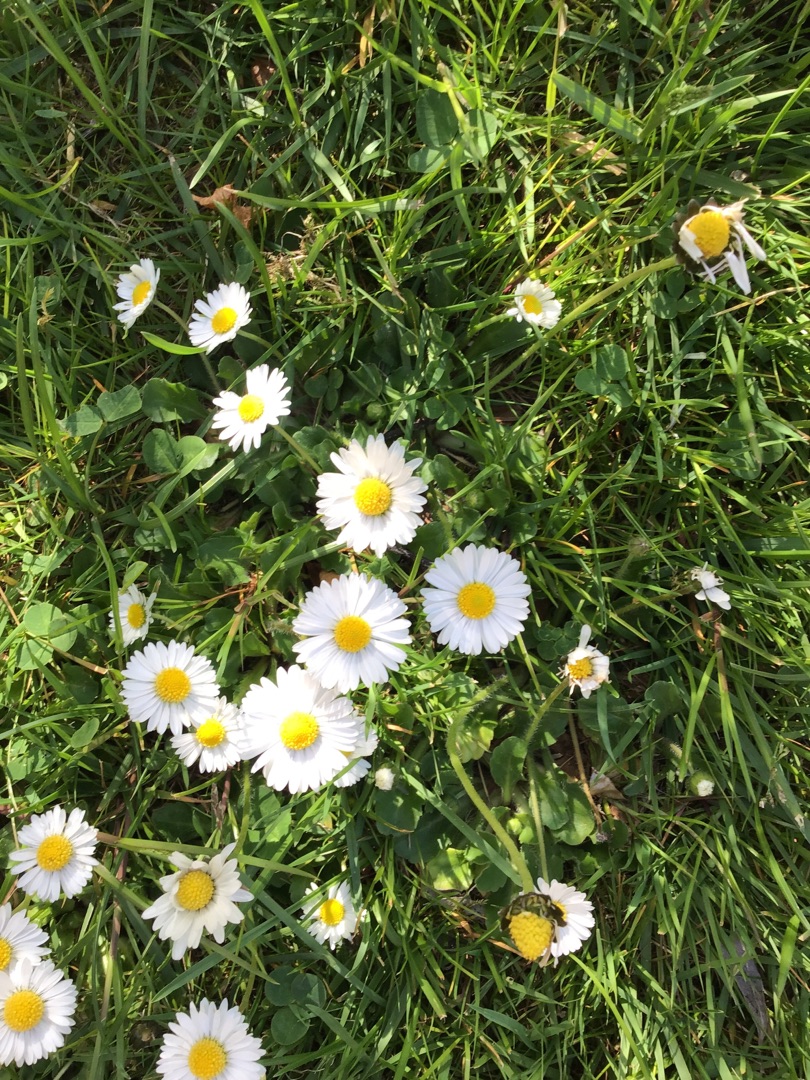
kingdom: Plantae
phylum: Tracheophyta
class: Magnoliopsida
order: Asterales
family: Asteraceae
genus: Bellis
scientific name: Bellis perennis
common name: Tusindfryd
